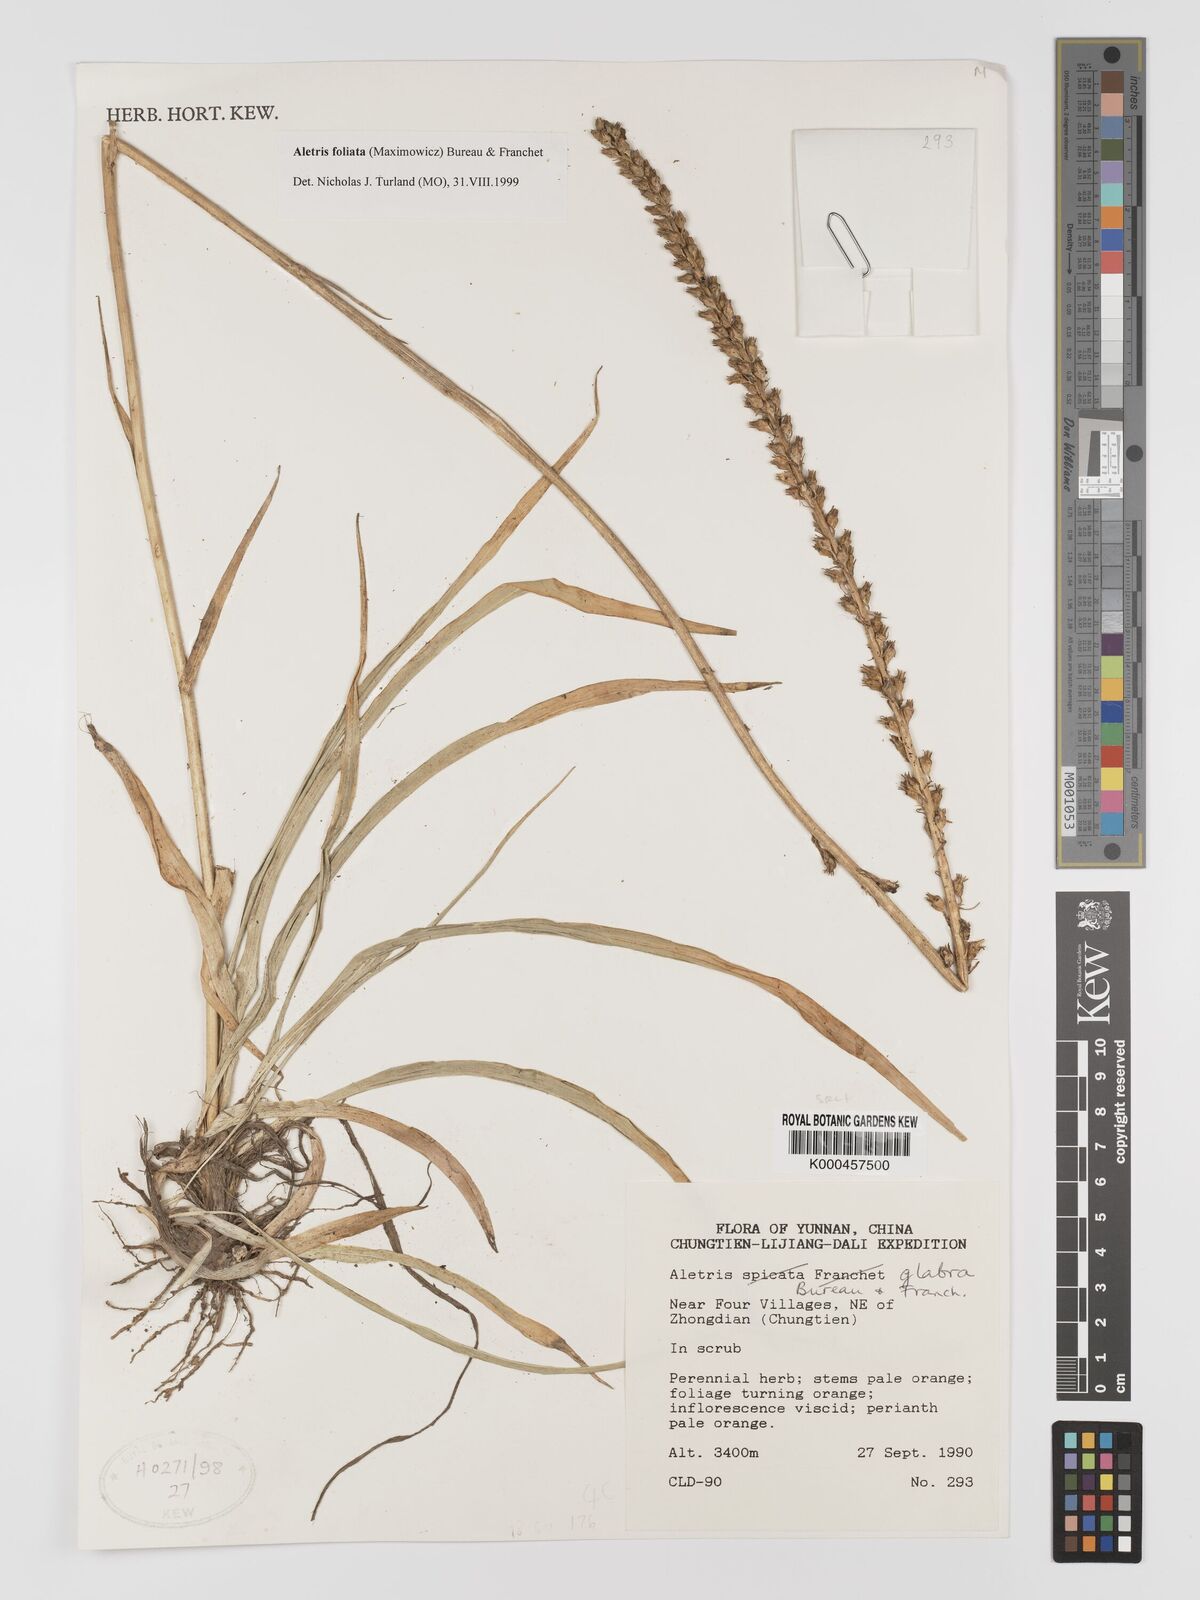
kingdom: Plantae
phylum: Tracheophyta
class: Liliopsida
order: Dioscoreales
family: Nartheciaceae
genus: Aletris
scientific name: Aletris glabra
